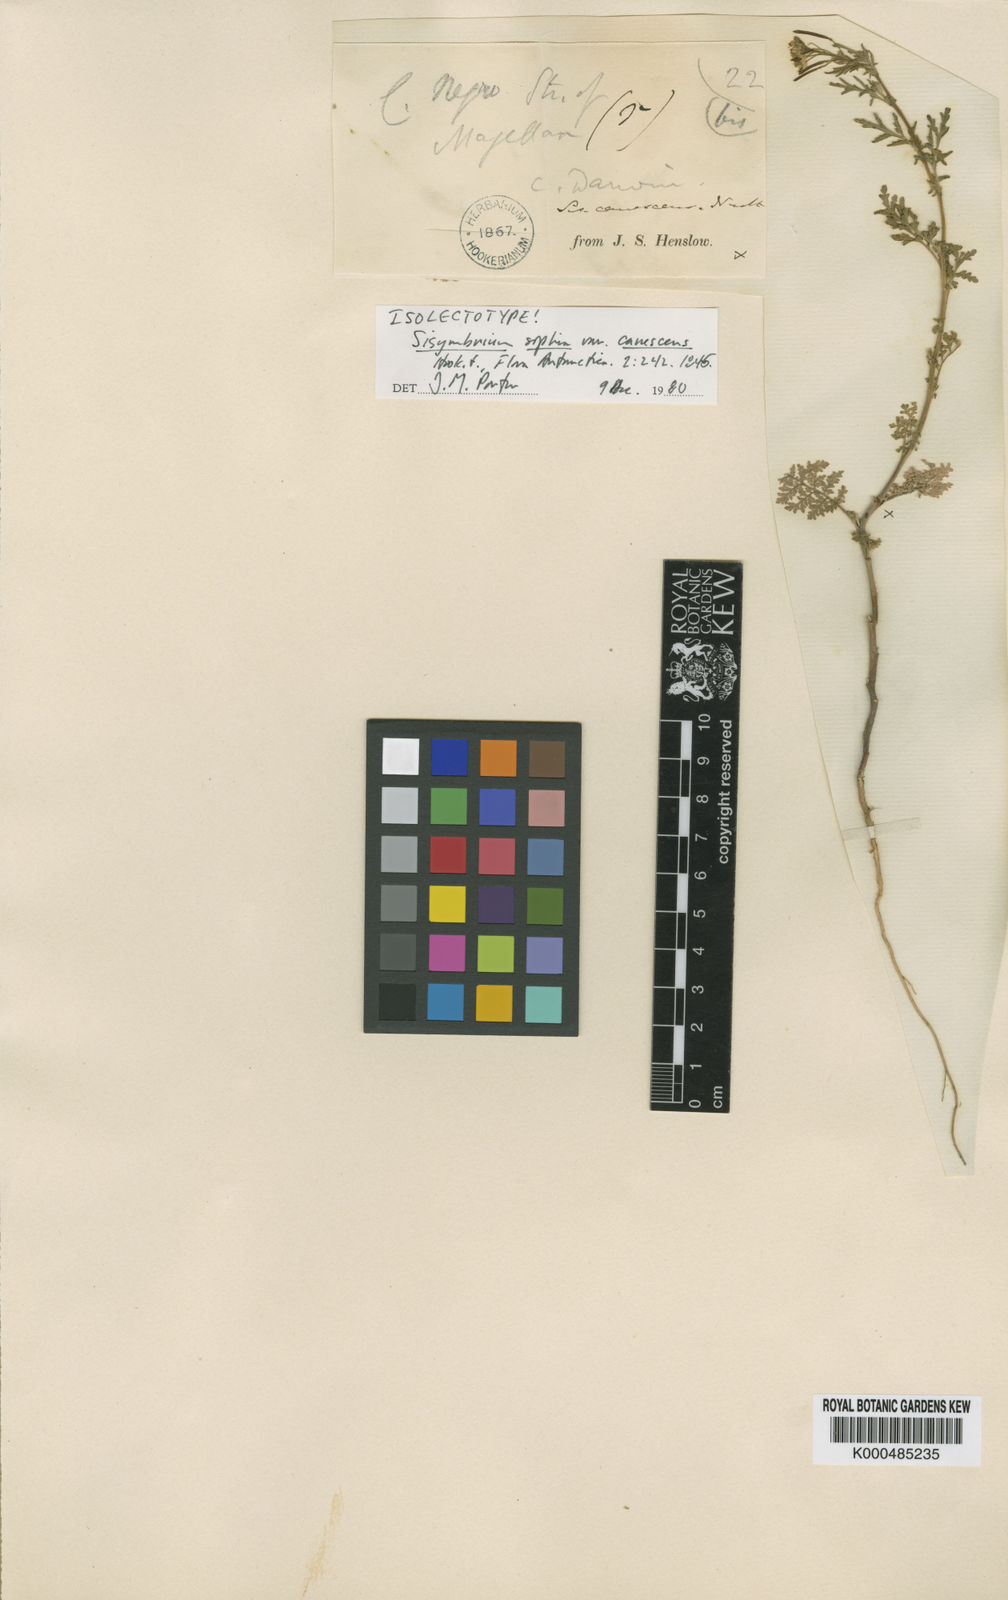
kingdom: Plantae
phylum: Tracheophyta
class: Magnoliopsida
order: Brassicales
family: Brassicaceae
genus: Descurainia
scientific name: Descurainia sophia
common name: Flixweed
